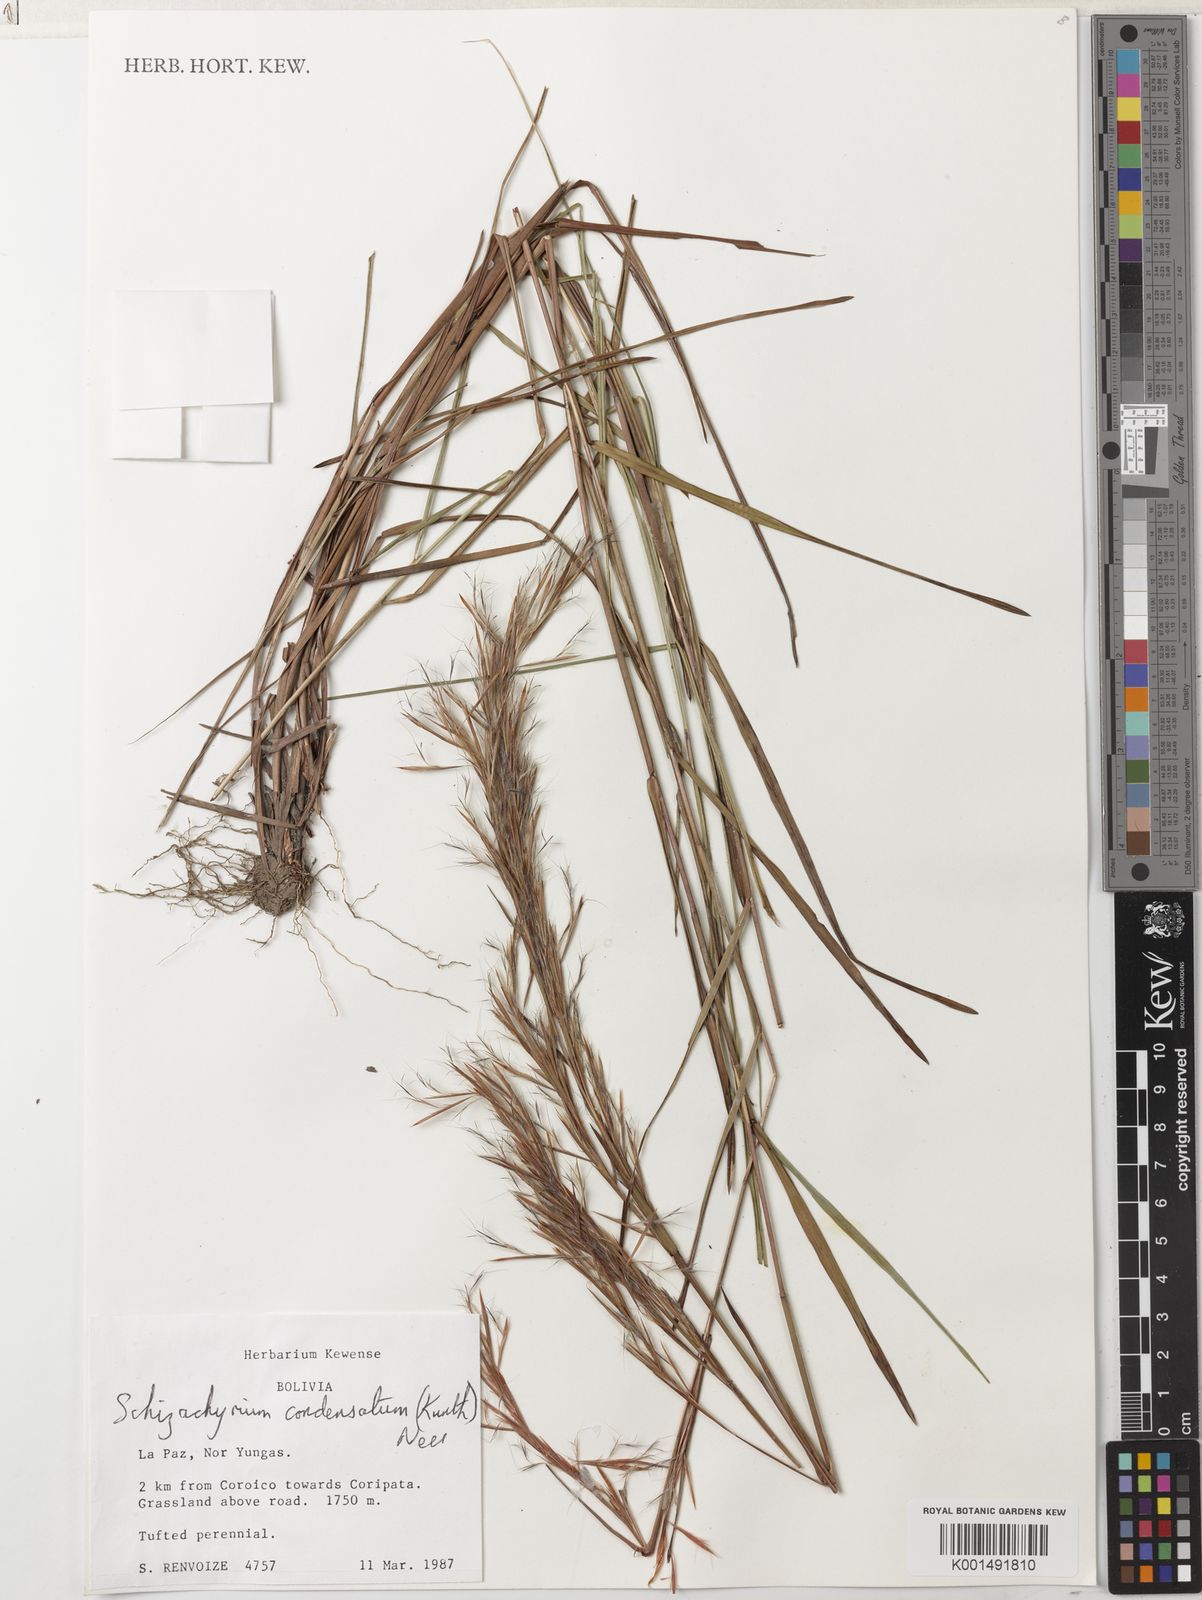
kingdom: Plantae
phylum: Tracheophyta
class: Liliopsida
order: Poales
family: Poaceae
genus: Schizachyrium
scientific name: Schizachyrium glaziovii
